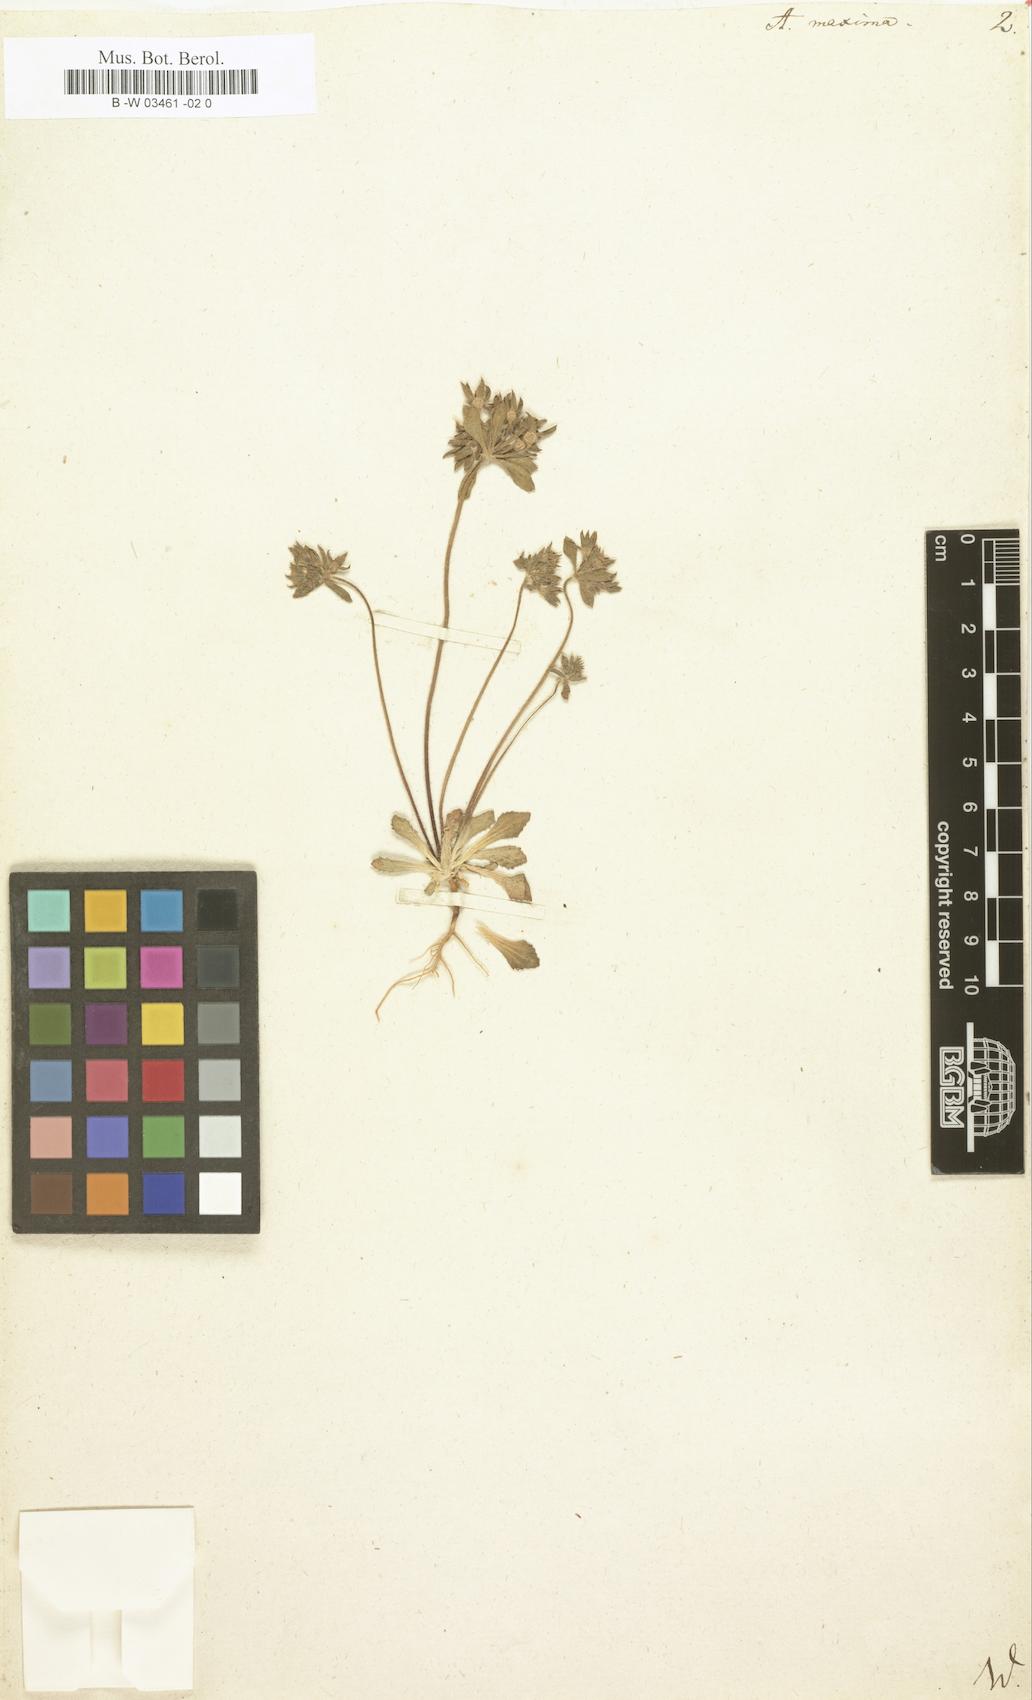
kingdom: Plantae
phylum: Tracheophyta
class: Magnoliopsida
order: Ericales
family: Primulaceae
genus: Androsace
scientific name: Androsace maxima
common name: Annual androsace
